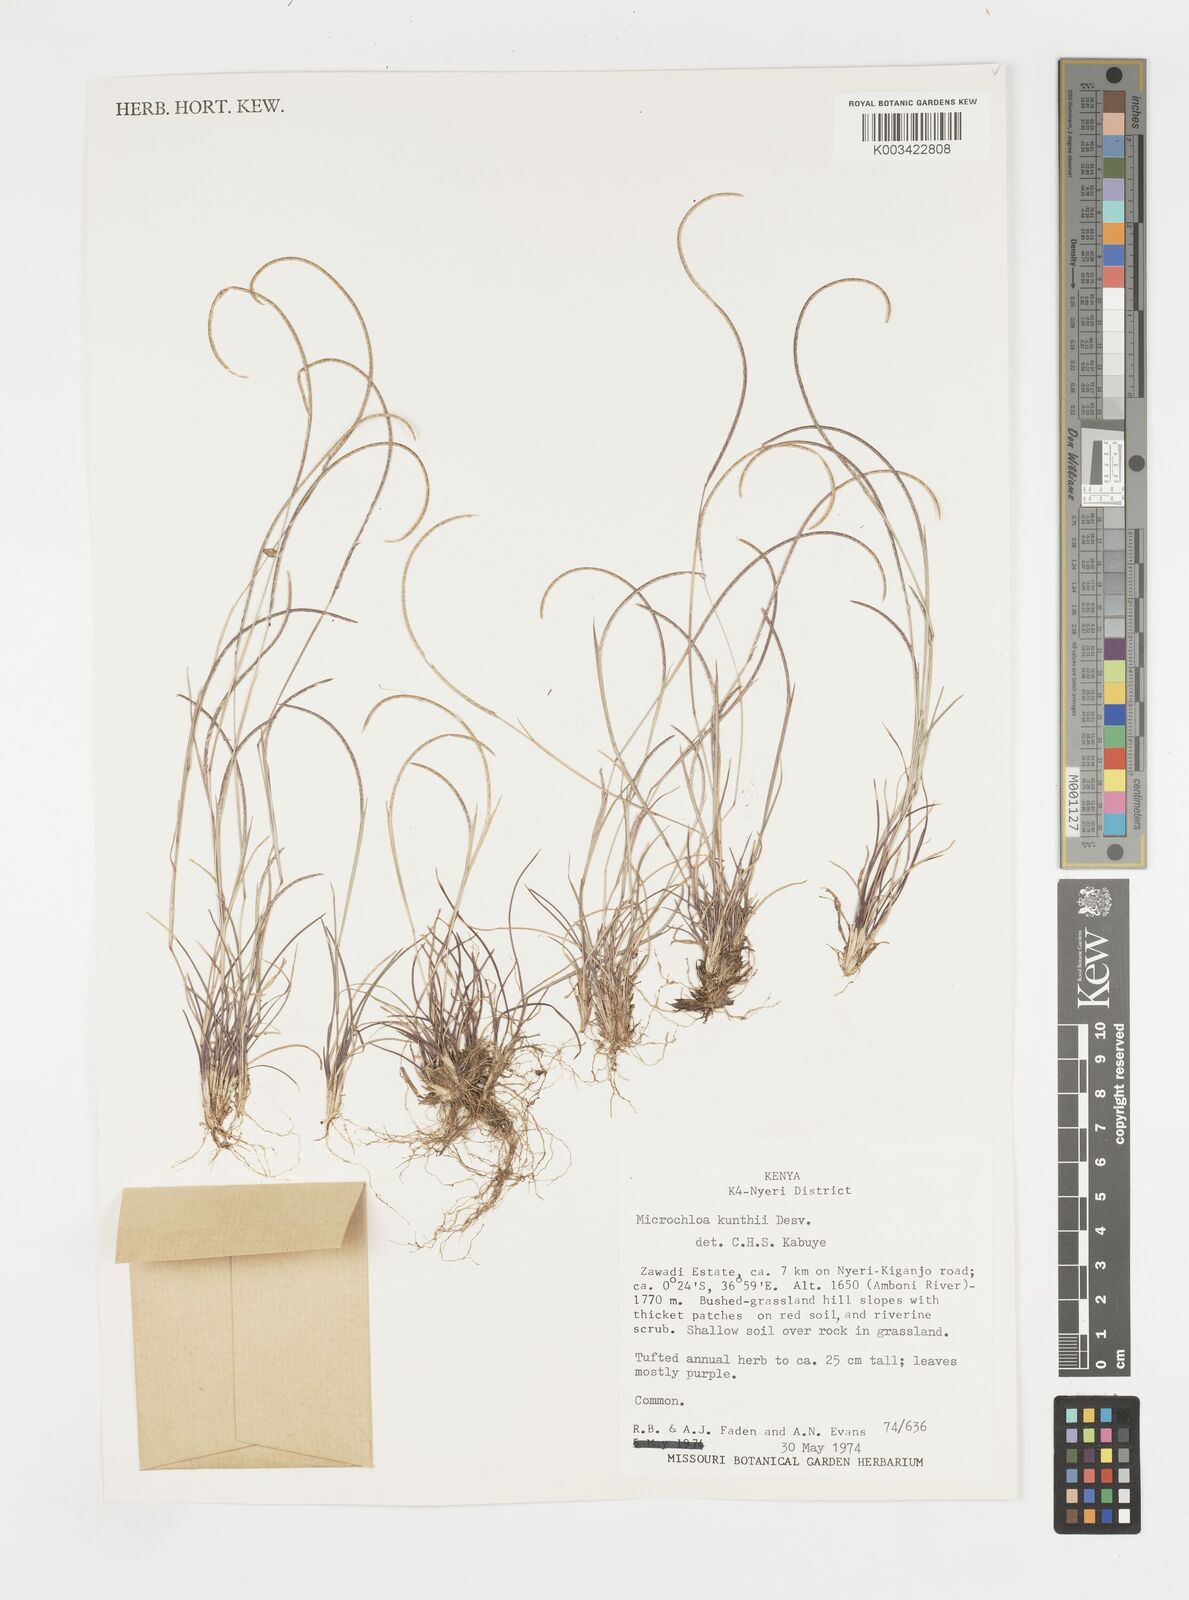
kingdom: Plantae
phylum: Tracheophyta
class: Liliopsida
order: Poales
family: Poaceae
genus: Microchloa
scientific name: Microchloa kunthii
